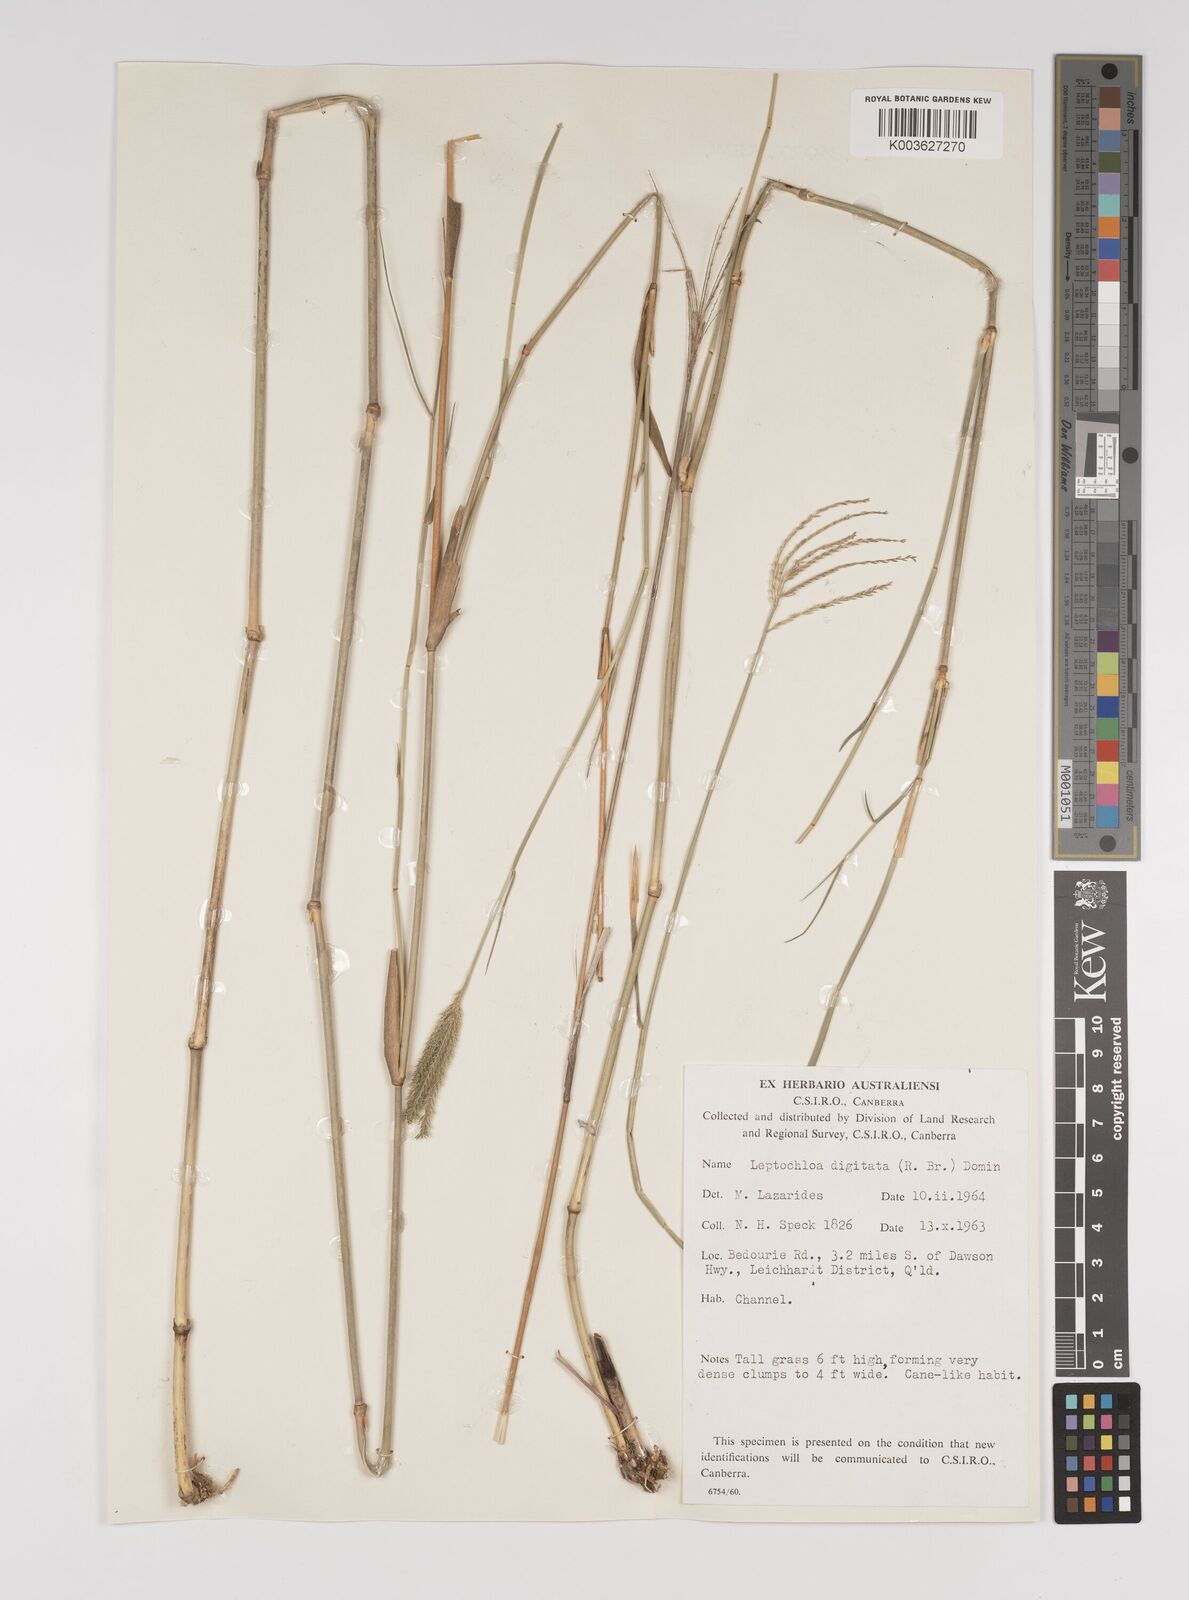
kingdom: Plantae
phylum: Tracheophyta
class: Liliopsida
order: Poales
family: Poaceae
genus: Leptochloa
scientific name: Leptochloa digitata
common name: Finger sprangletop
